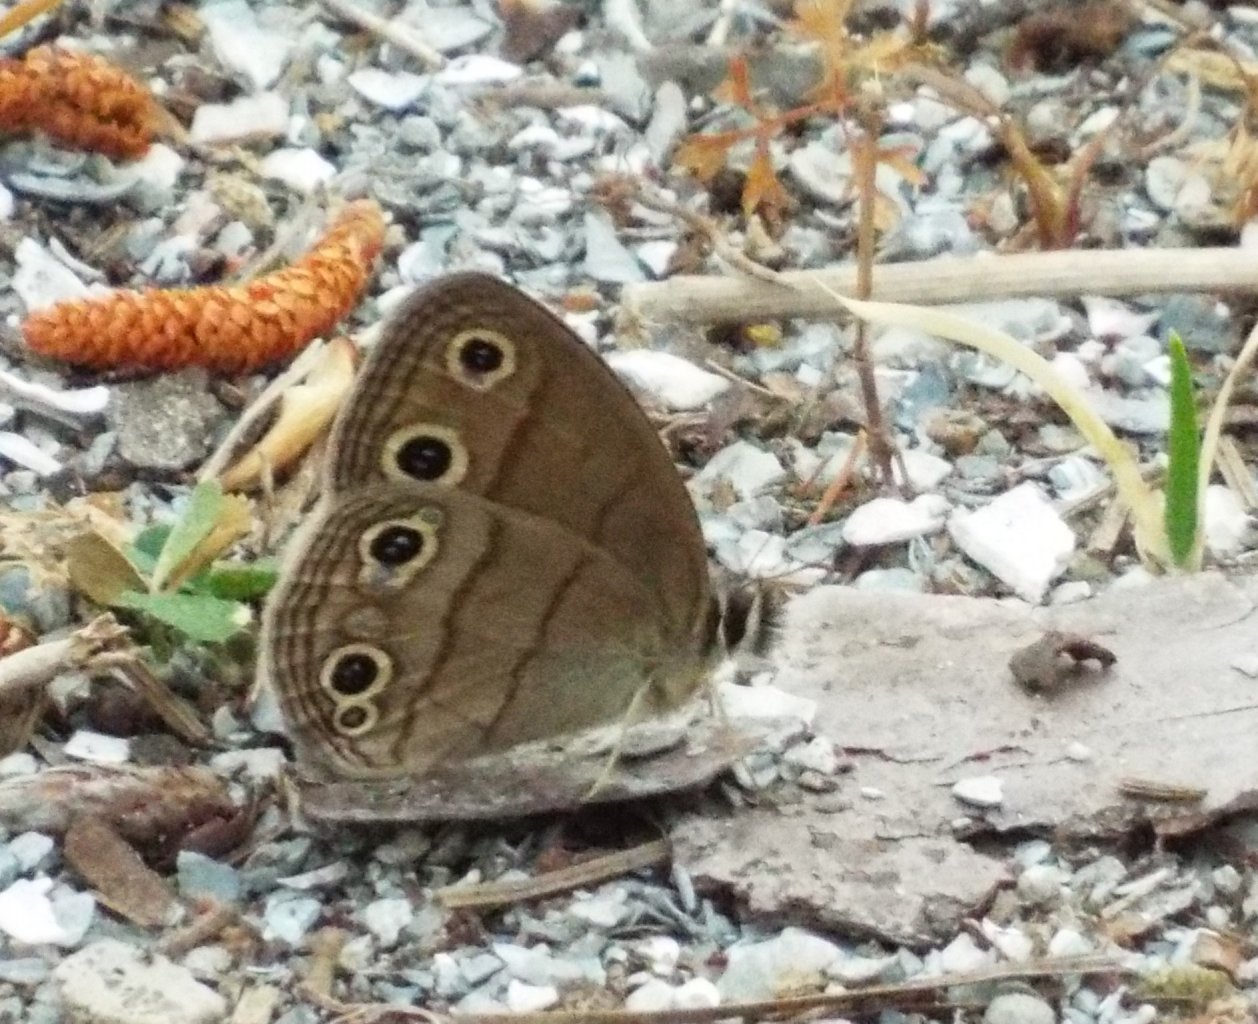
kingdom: Animalia
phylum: Arthropoda
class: Insecta
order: Lepidoptera
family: Nymphalidae
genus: Euptychia
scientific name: Euptychia cymela
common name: Little Wood Satyr
